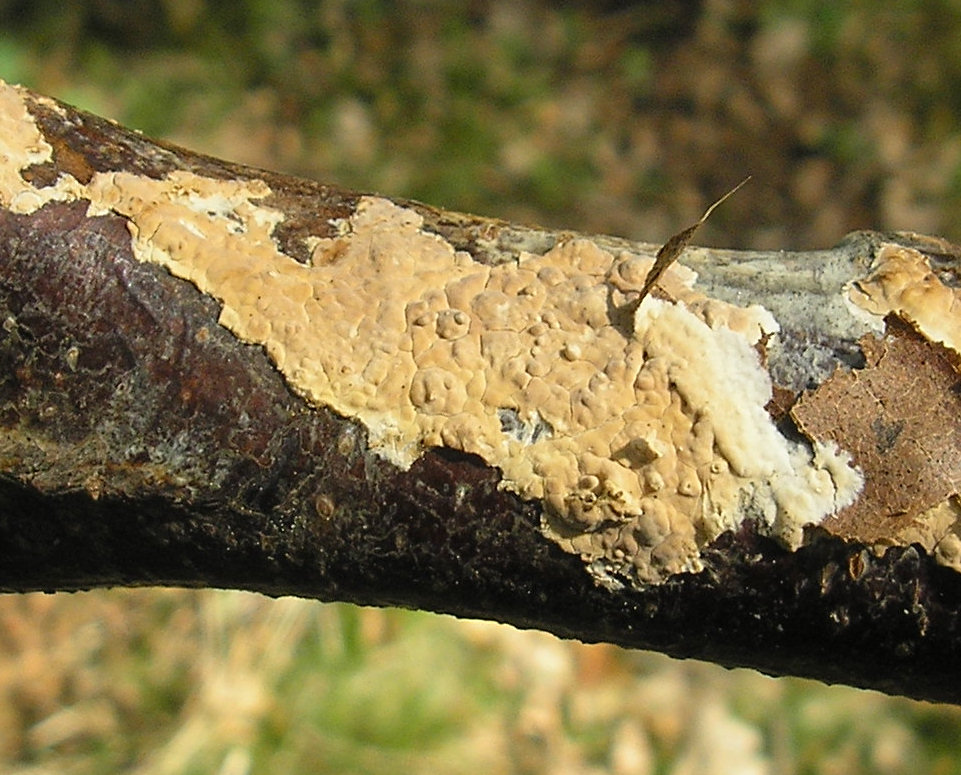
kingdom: Fungi
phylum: Basidiomycota
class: Agaricomycetes
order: Agaricales
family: Physalacriaceae
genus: Cylindrobasidium
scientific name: Cylindrobasidium evolvens
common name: sprækkehinde
